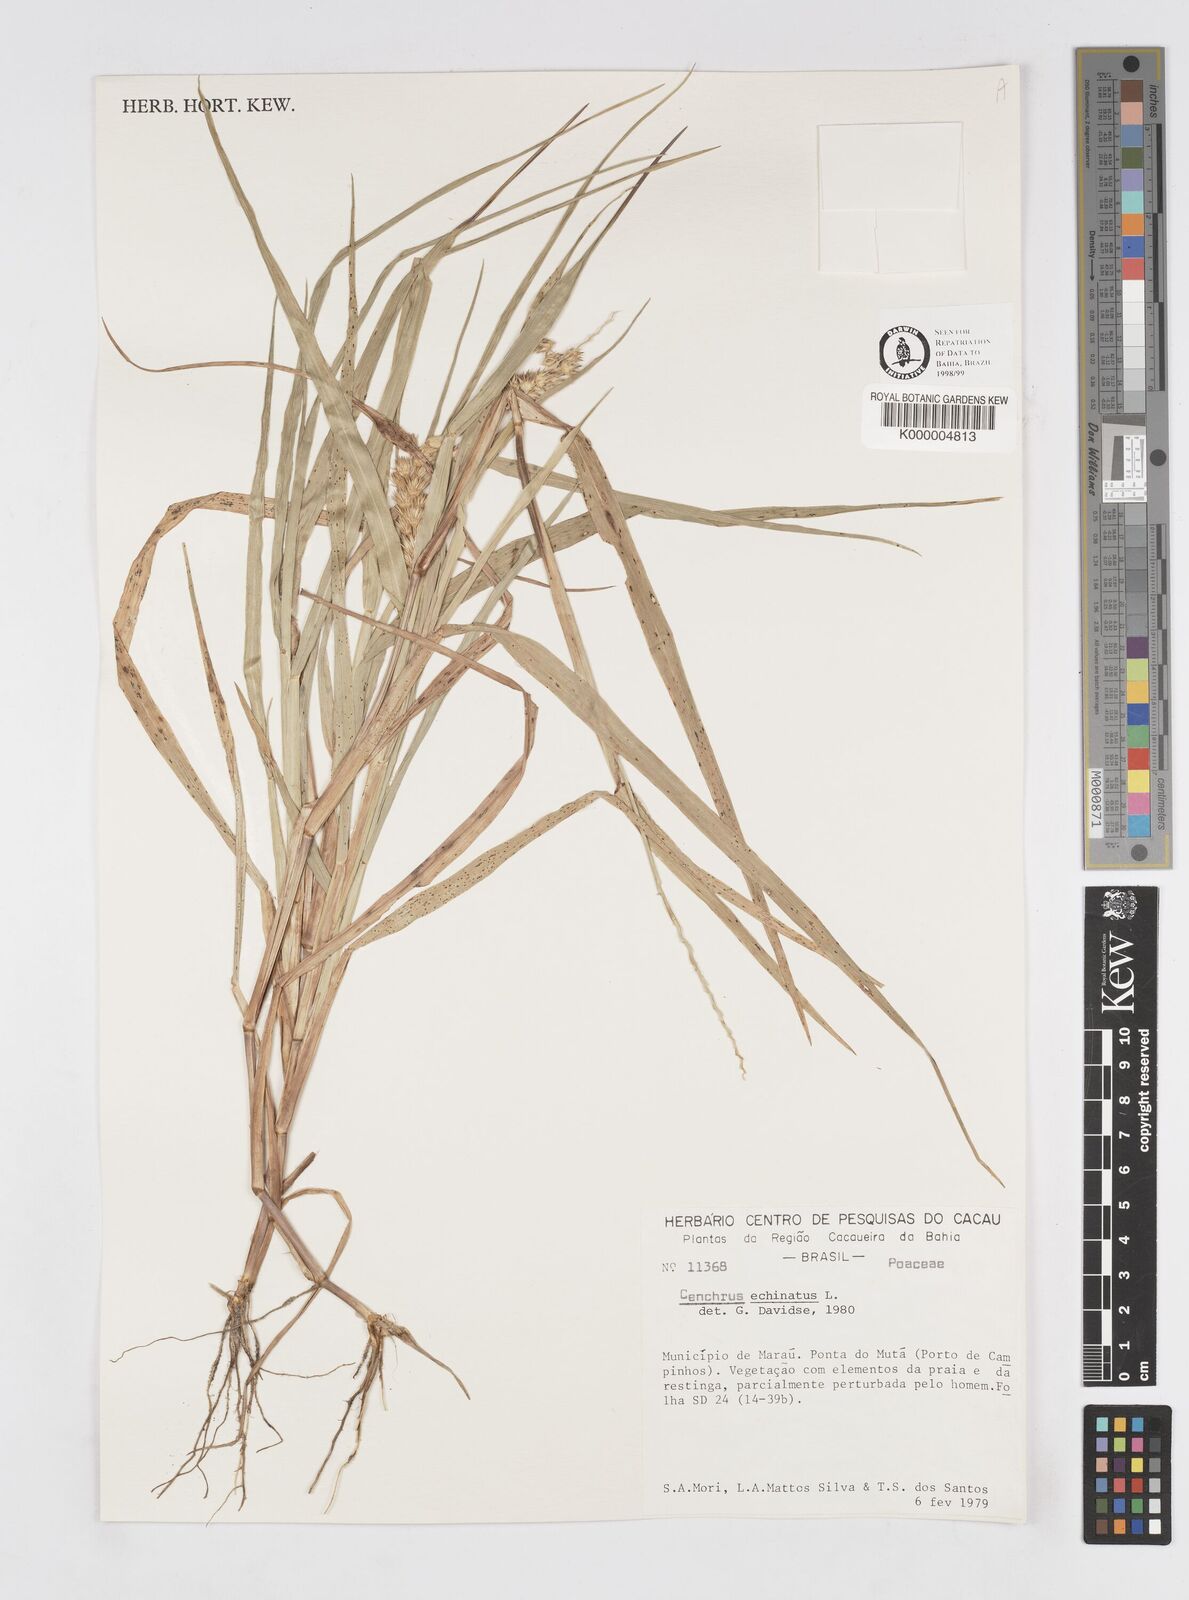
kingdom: Plantae
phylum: Tracheophyta
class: Liliopsida
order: Poales
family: Poaceae
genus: Cenchrus
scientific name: Cenchrus echinatus
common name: Southern sandbur
